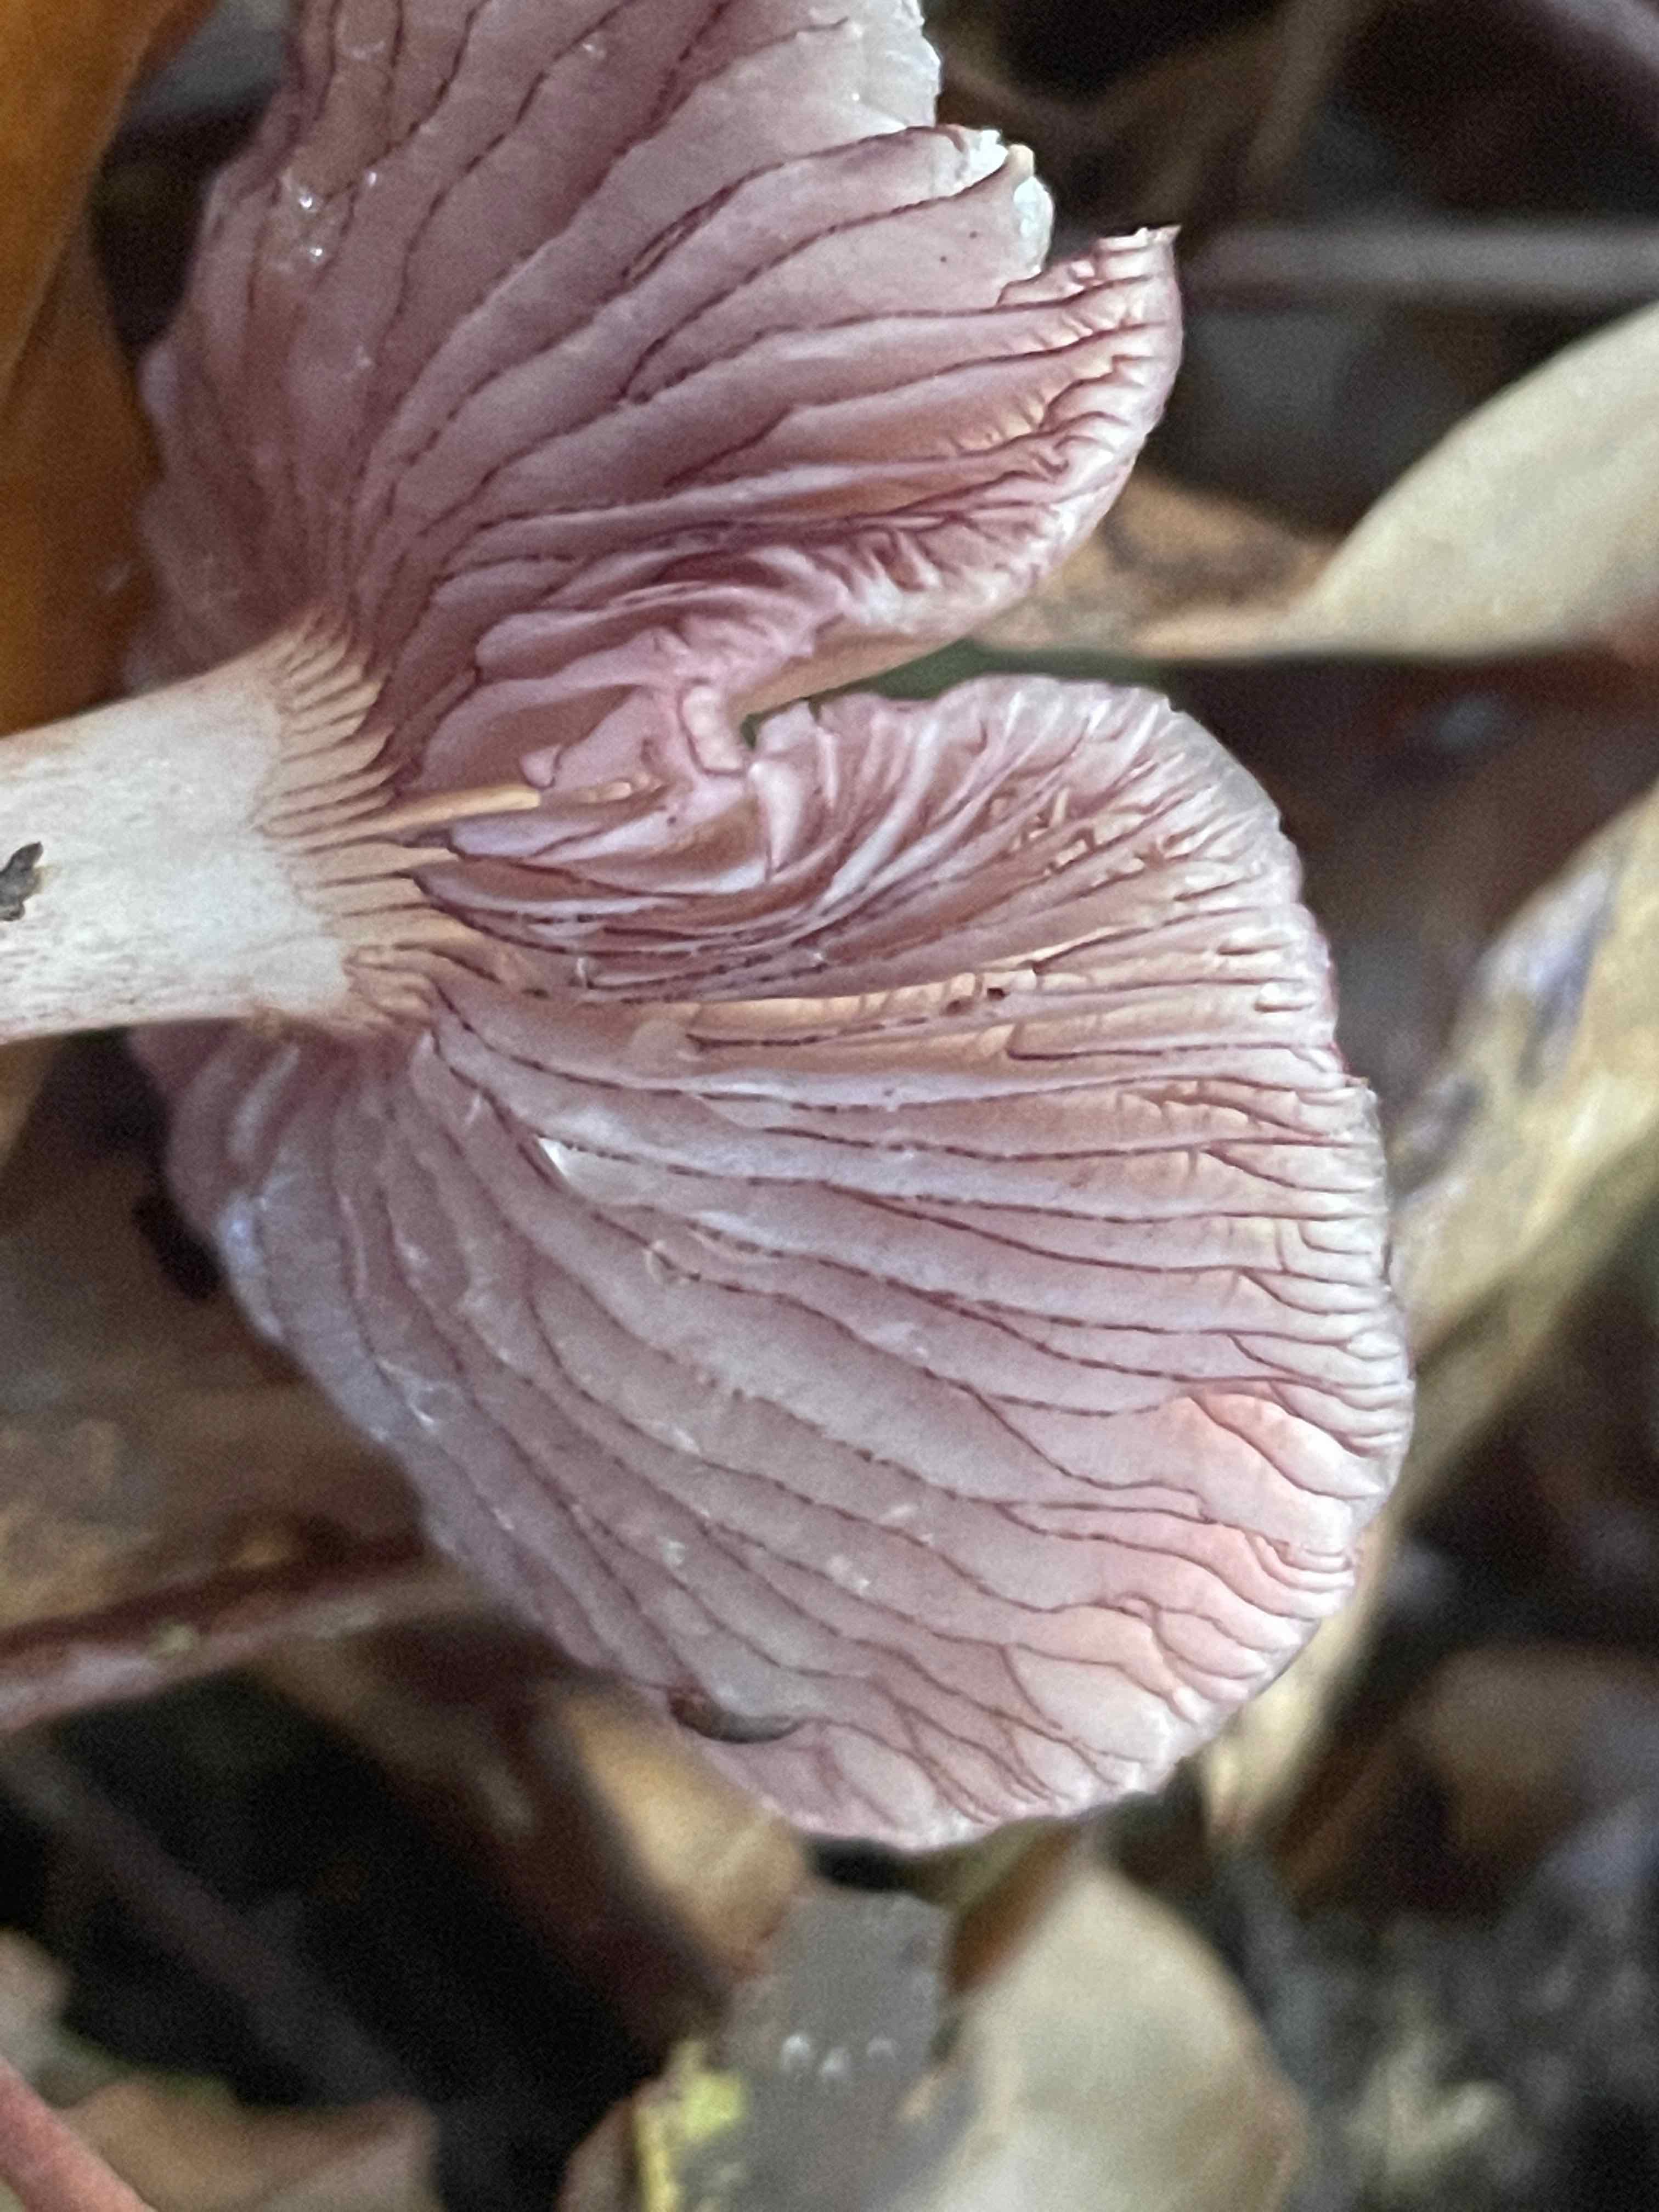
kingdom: Fungi
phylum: Basidiomycota
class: Agaricomycetes
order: Agaricales
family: Mycenaceae
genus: Mycena
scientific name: Mycena pelianthina
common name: mørkbladet huesvamp
